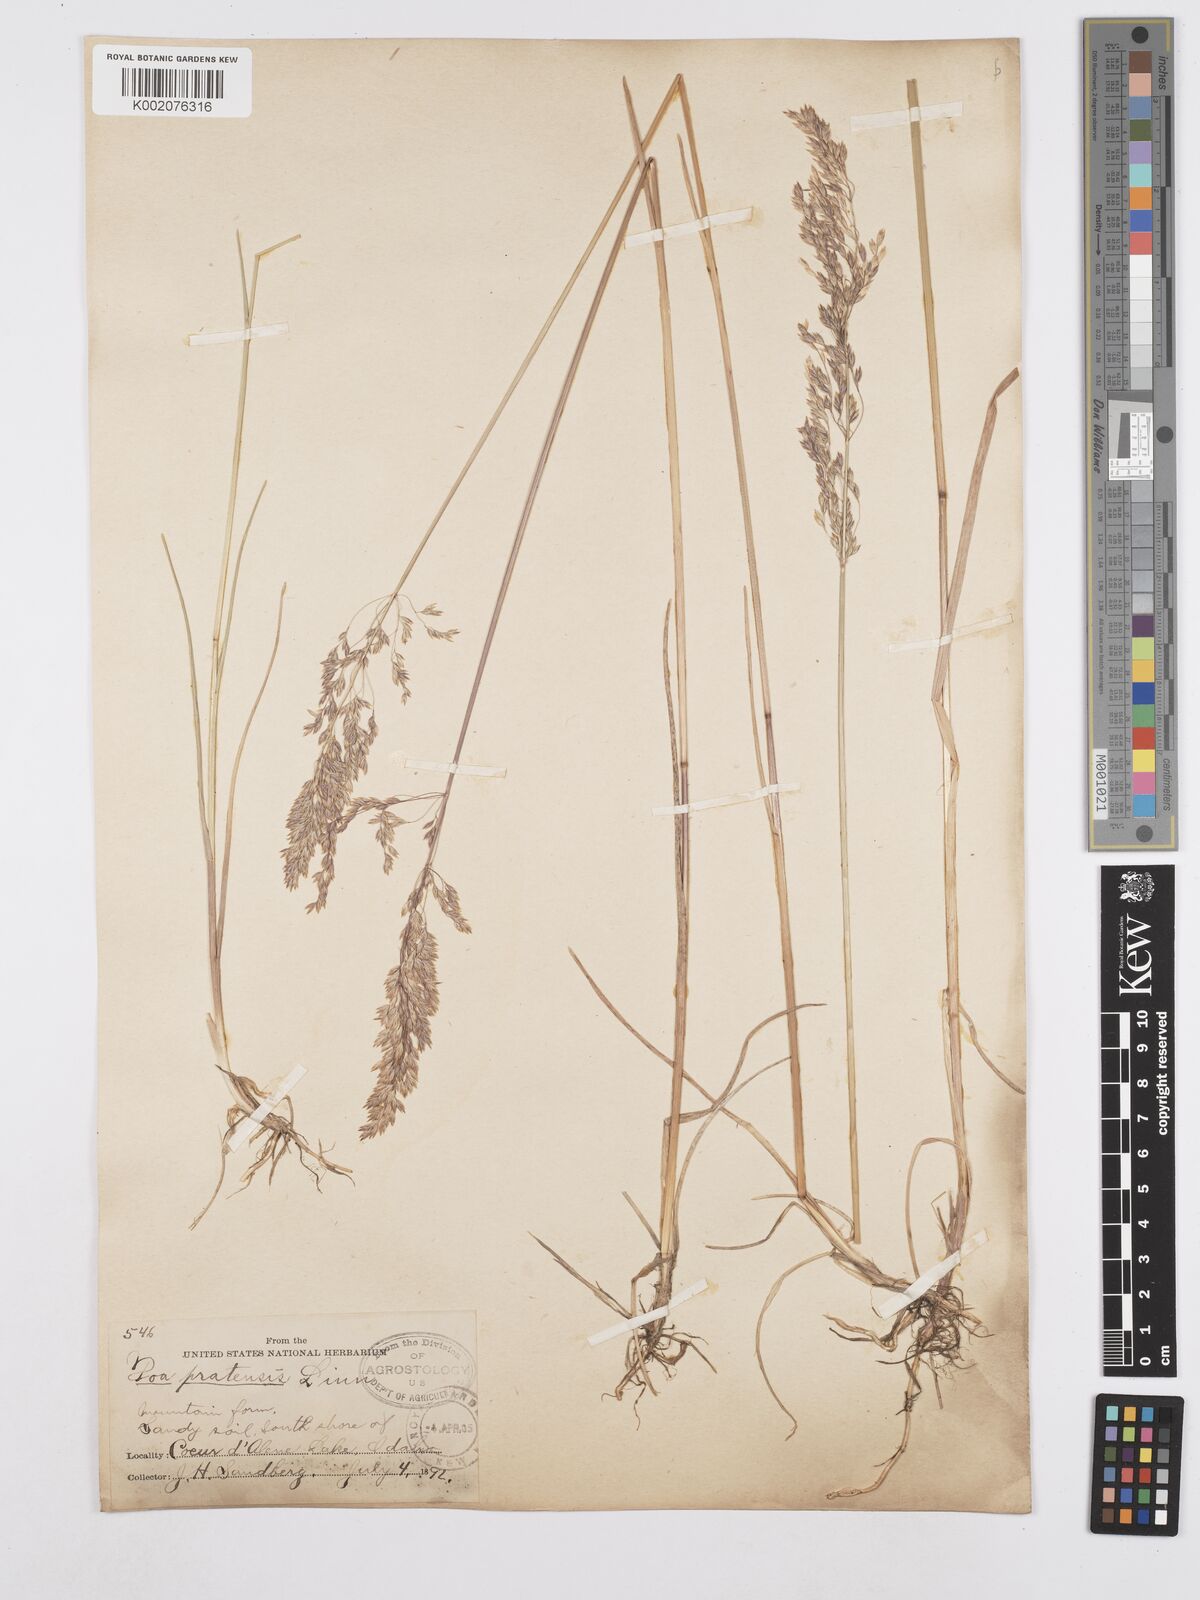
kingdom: Plantae
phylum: Tracheophyta
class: Liliopsida
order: Poales
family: Poaceae
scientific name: Poaceae
